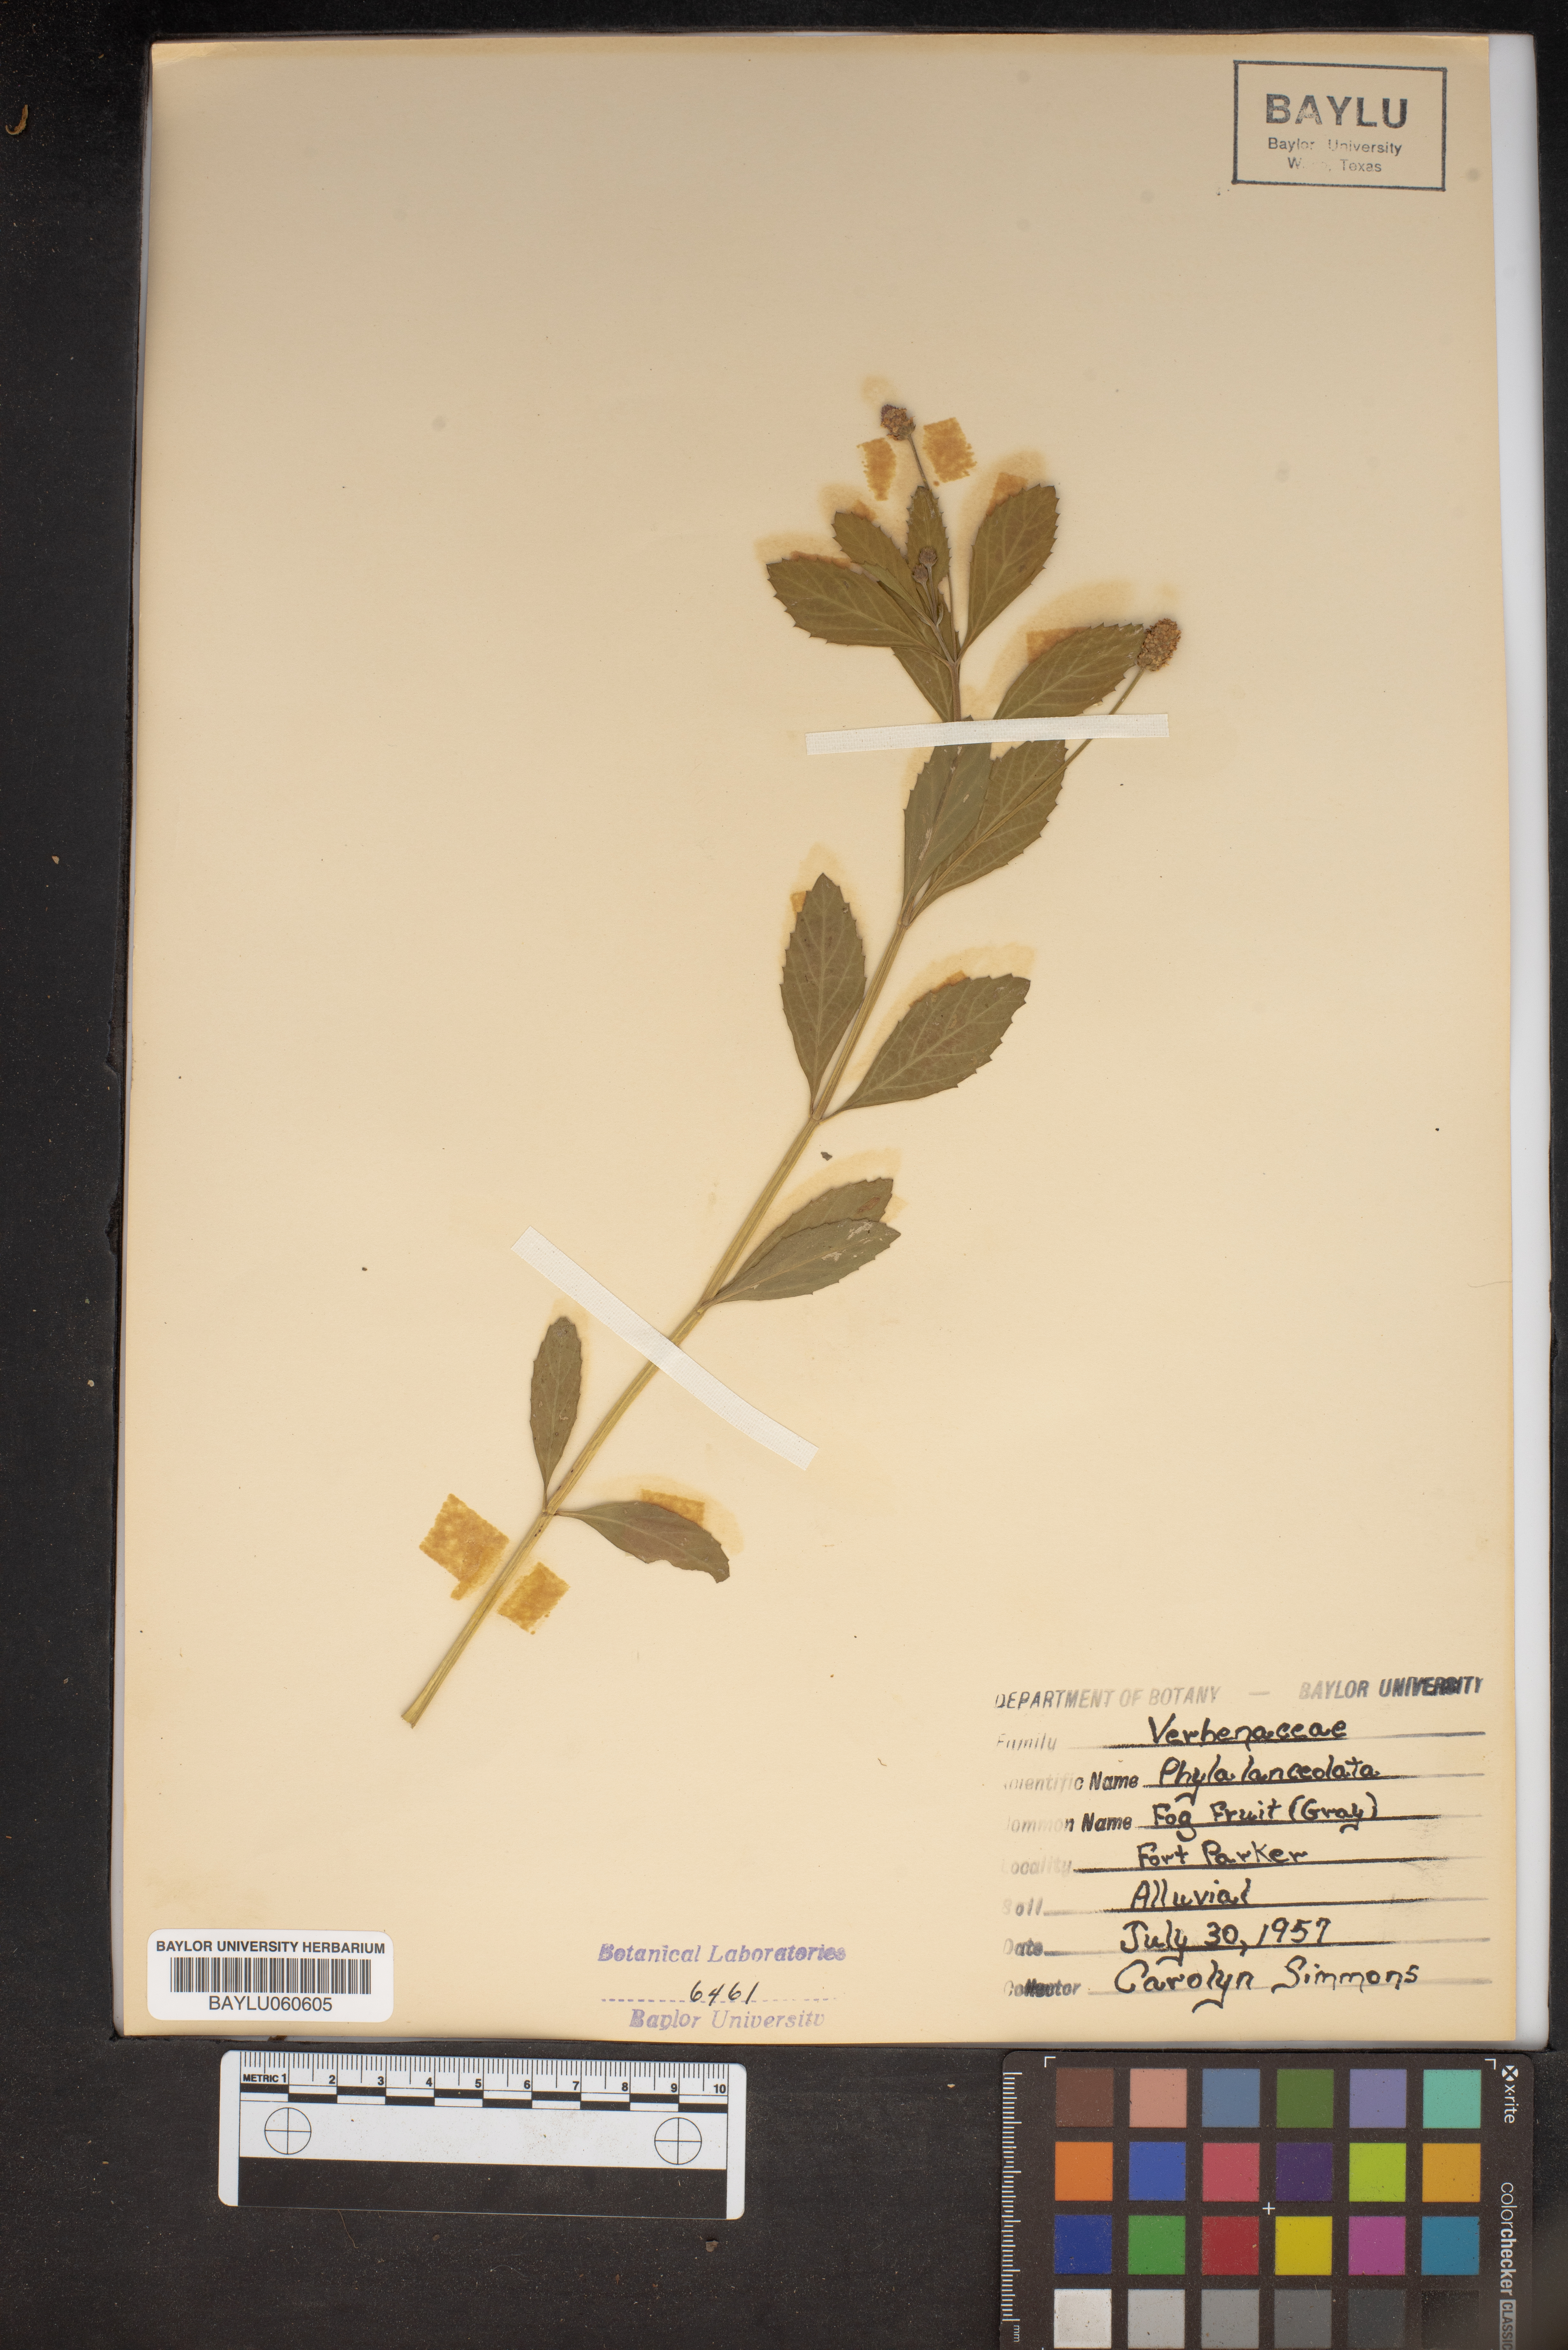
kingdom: Plantae
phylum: Tracheophyta
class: Magnoliopsida
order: Lamiales
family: Verbenaceae
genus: Phyla
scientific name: Phyla lanceolata
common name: Northern fogfruit
